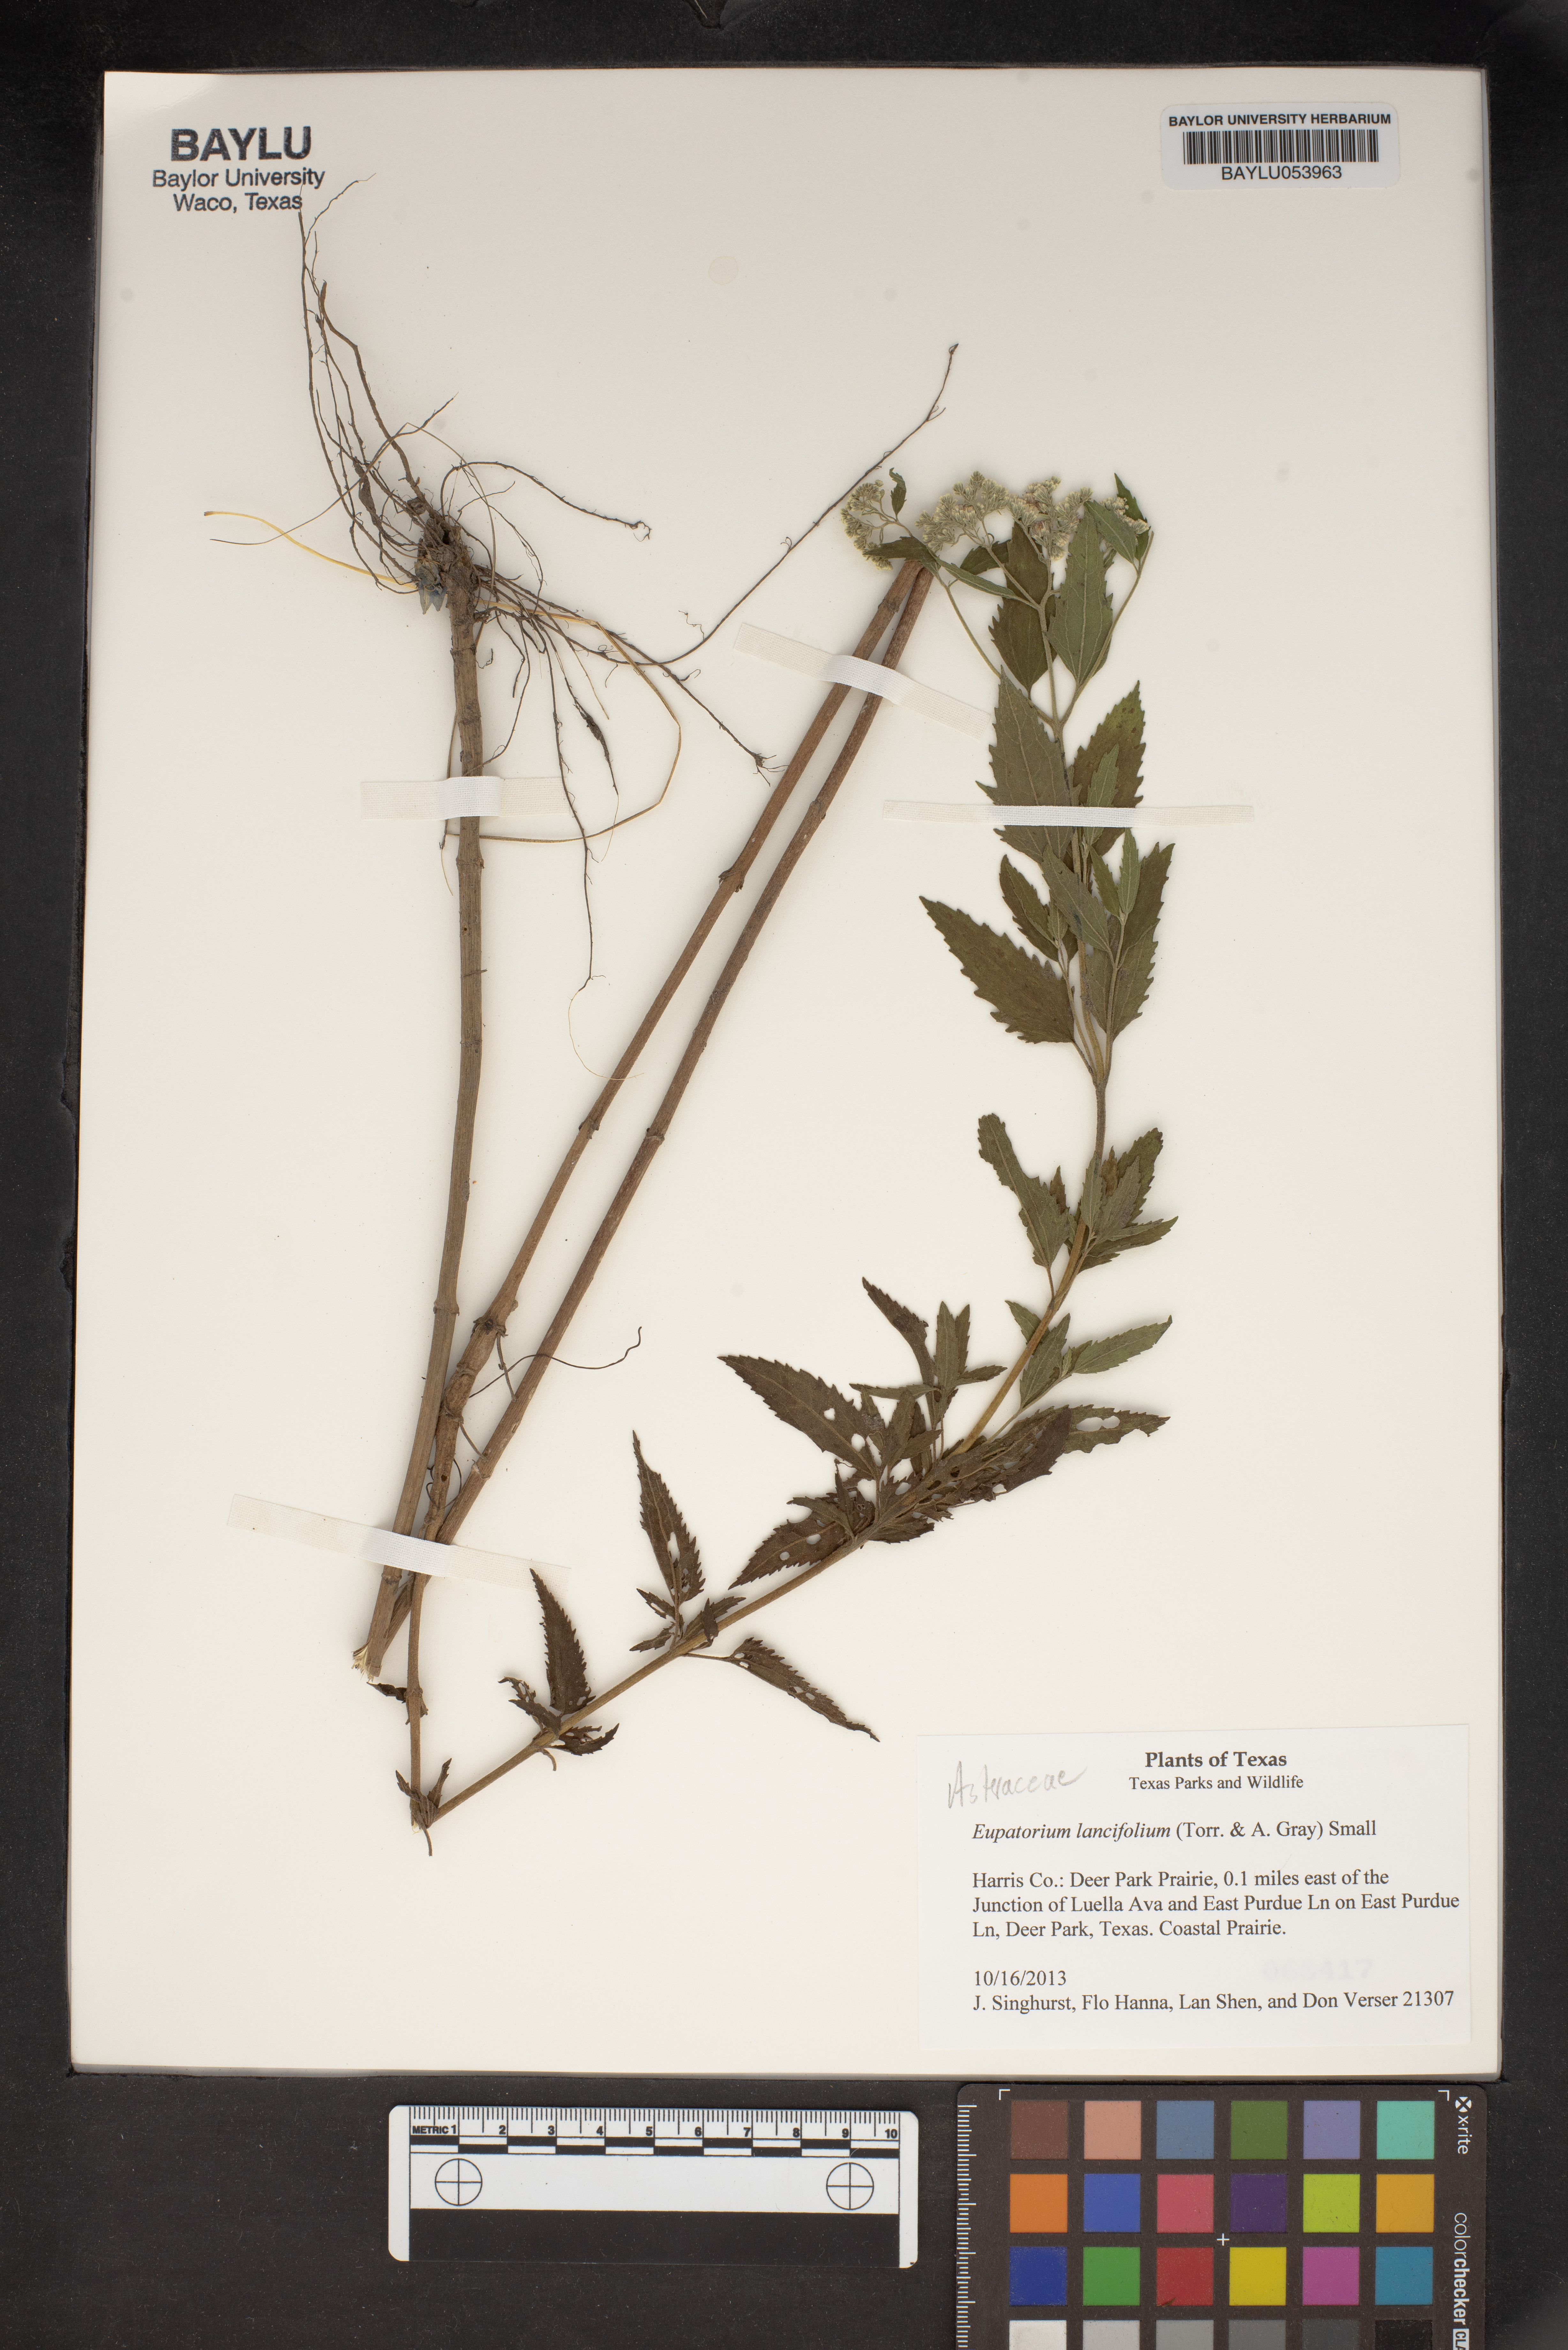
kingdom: Plantae
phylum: Tracheophyta
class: Magnoliopsida
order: Asterales
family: Asteraceae
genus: Eupatorium
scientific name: Eupatorium lancifolium
